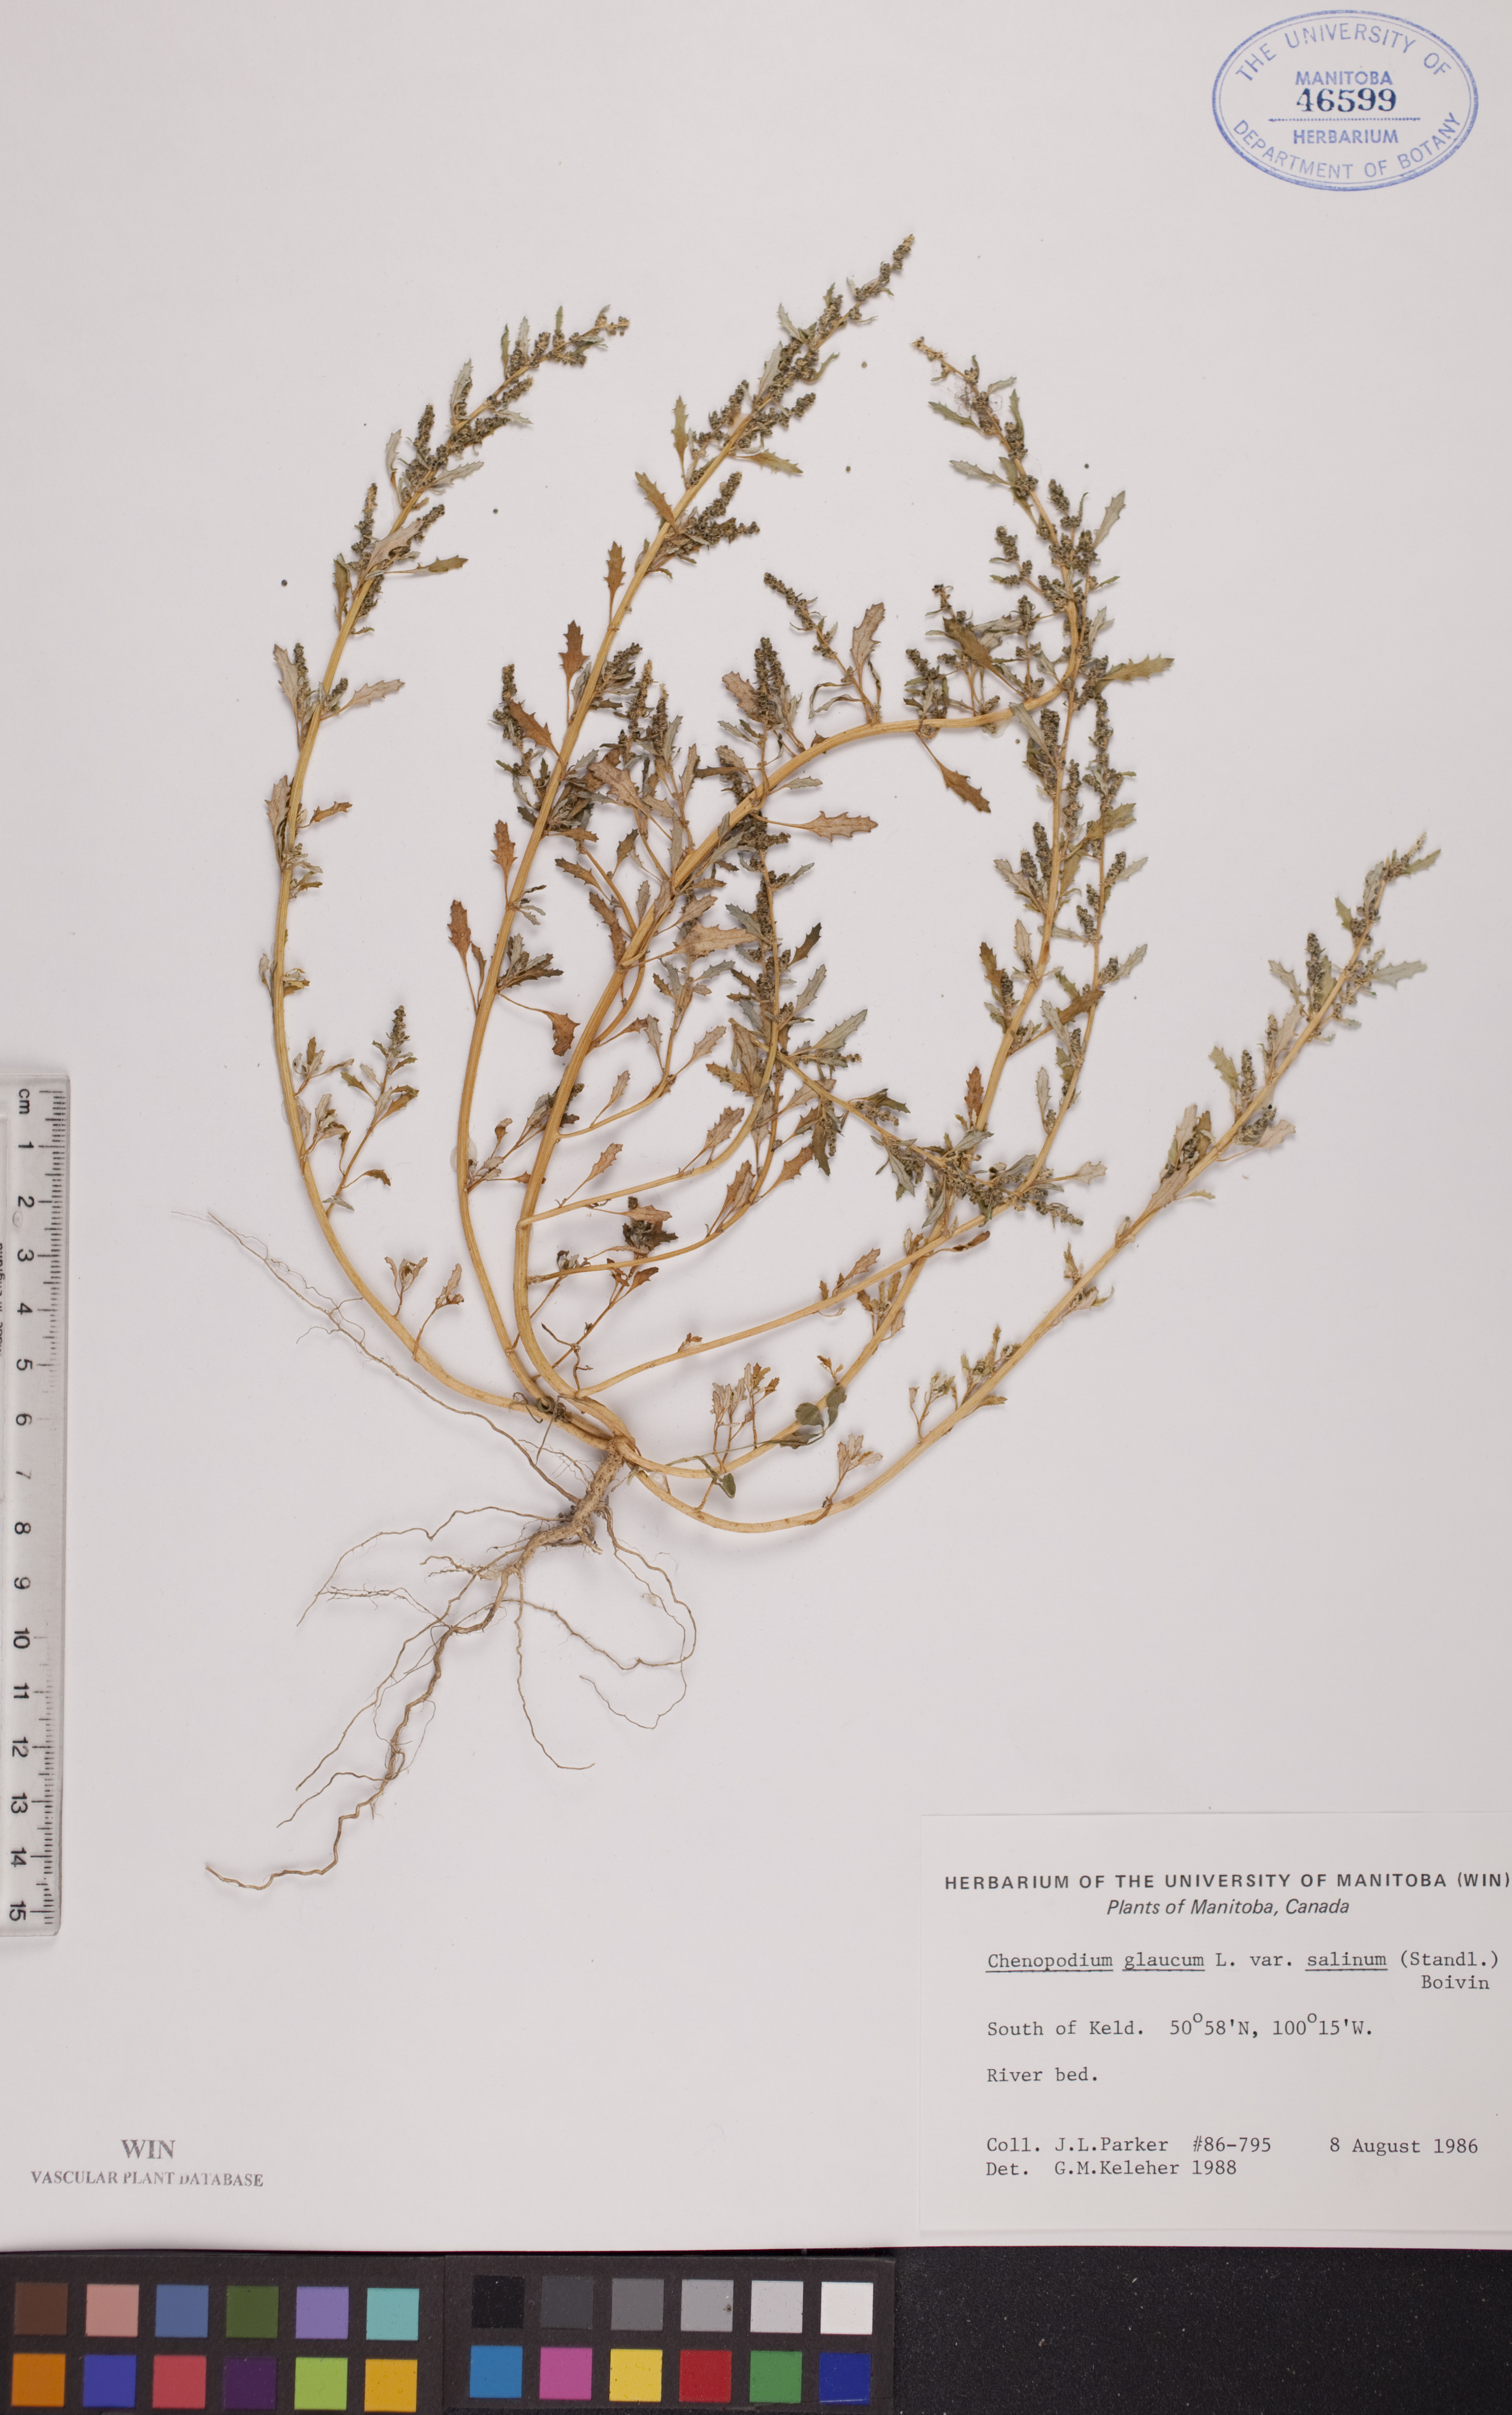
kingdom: Plantae
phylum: Tracheophyta
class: Magnoliopsida
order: Caryophyllales
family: Amaranthaceae
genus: Oxybasis
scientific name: Oxybasis salina
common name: Rocky mountain goosefoot
